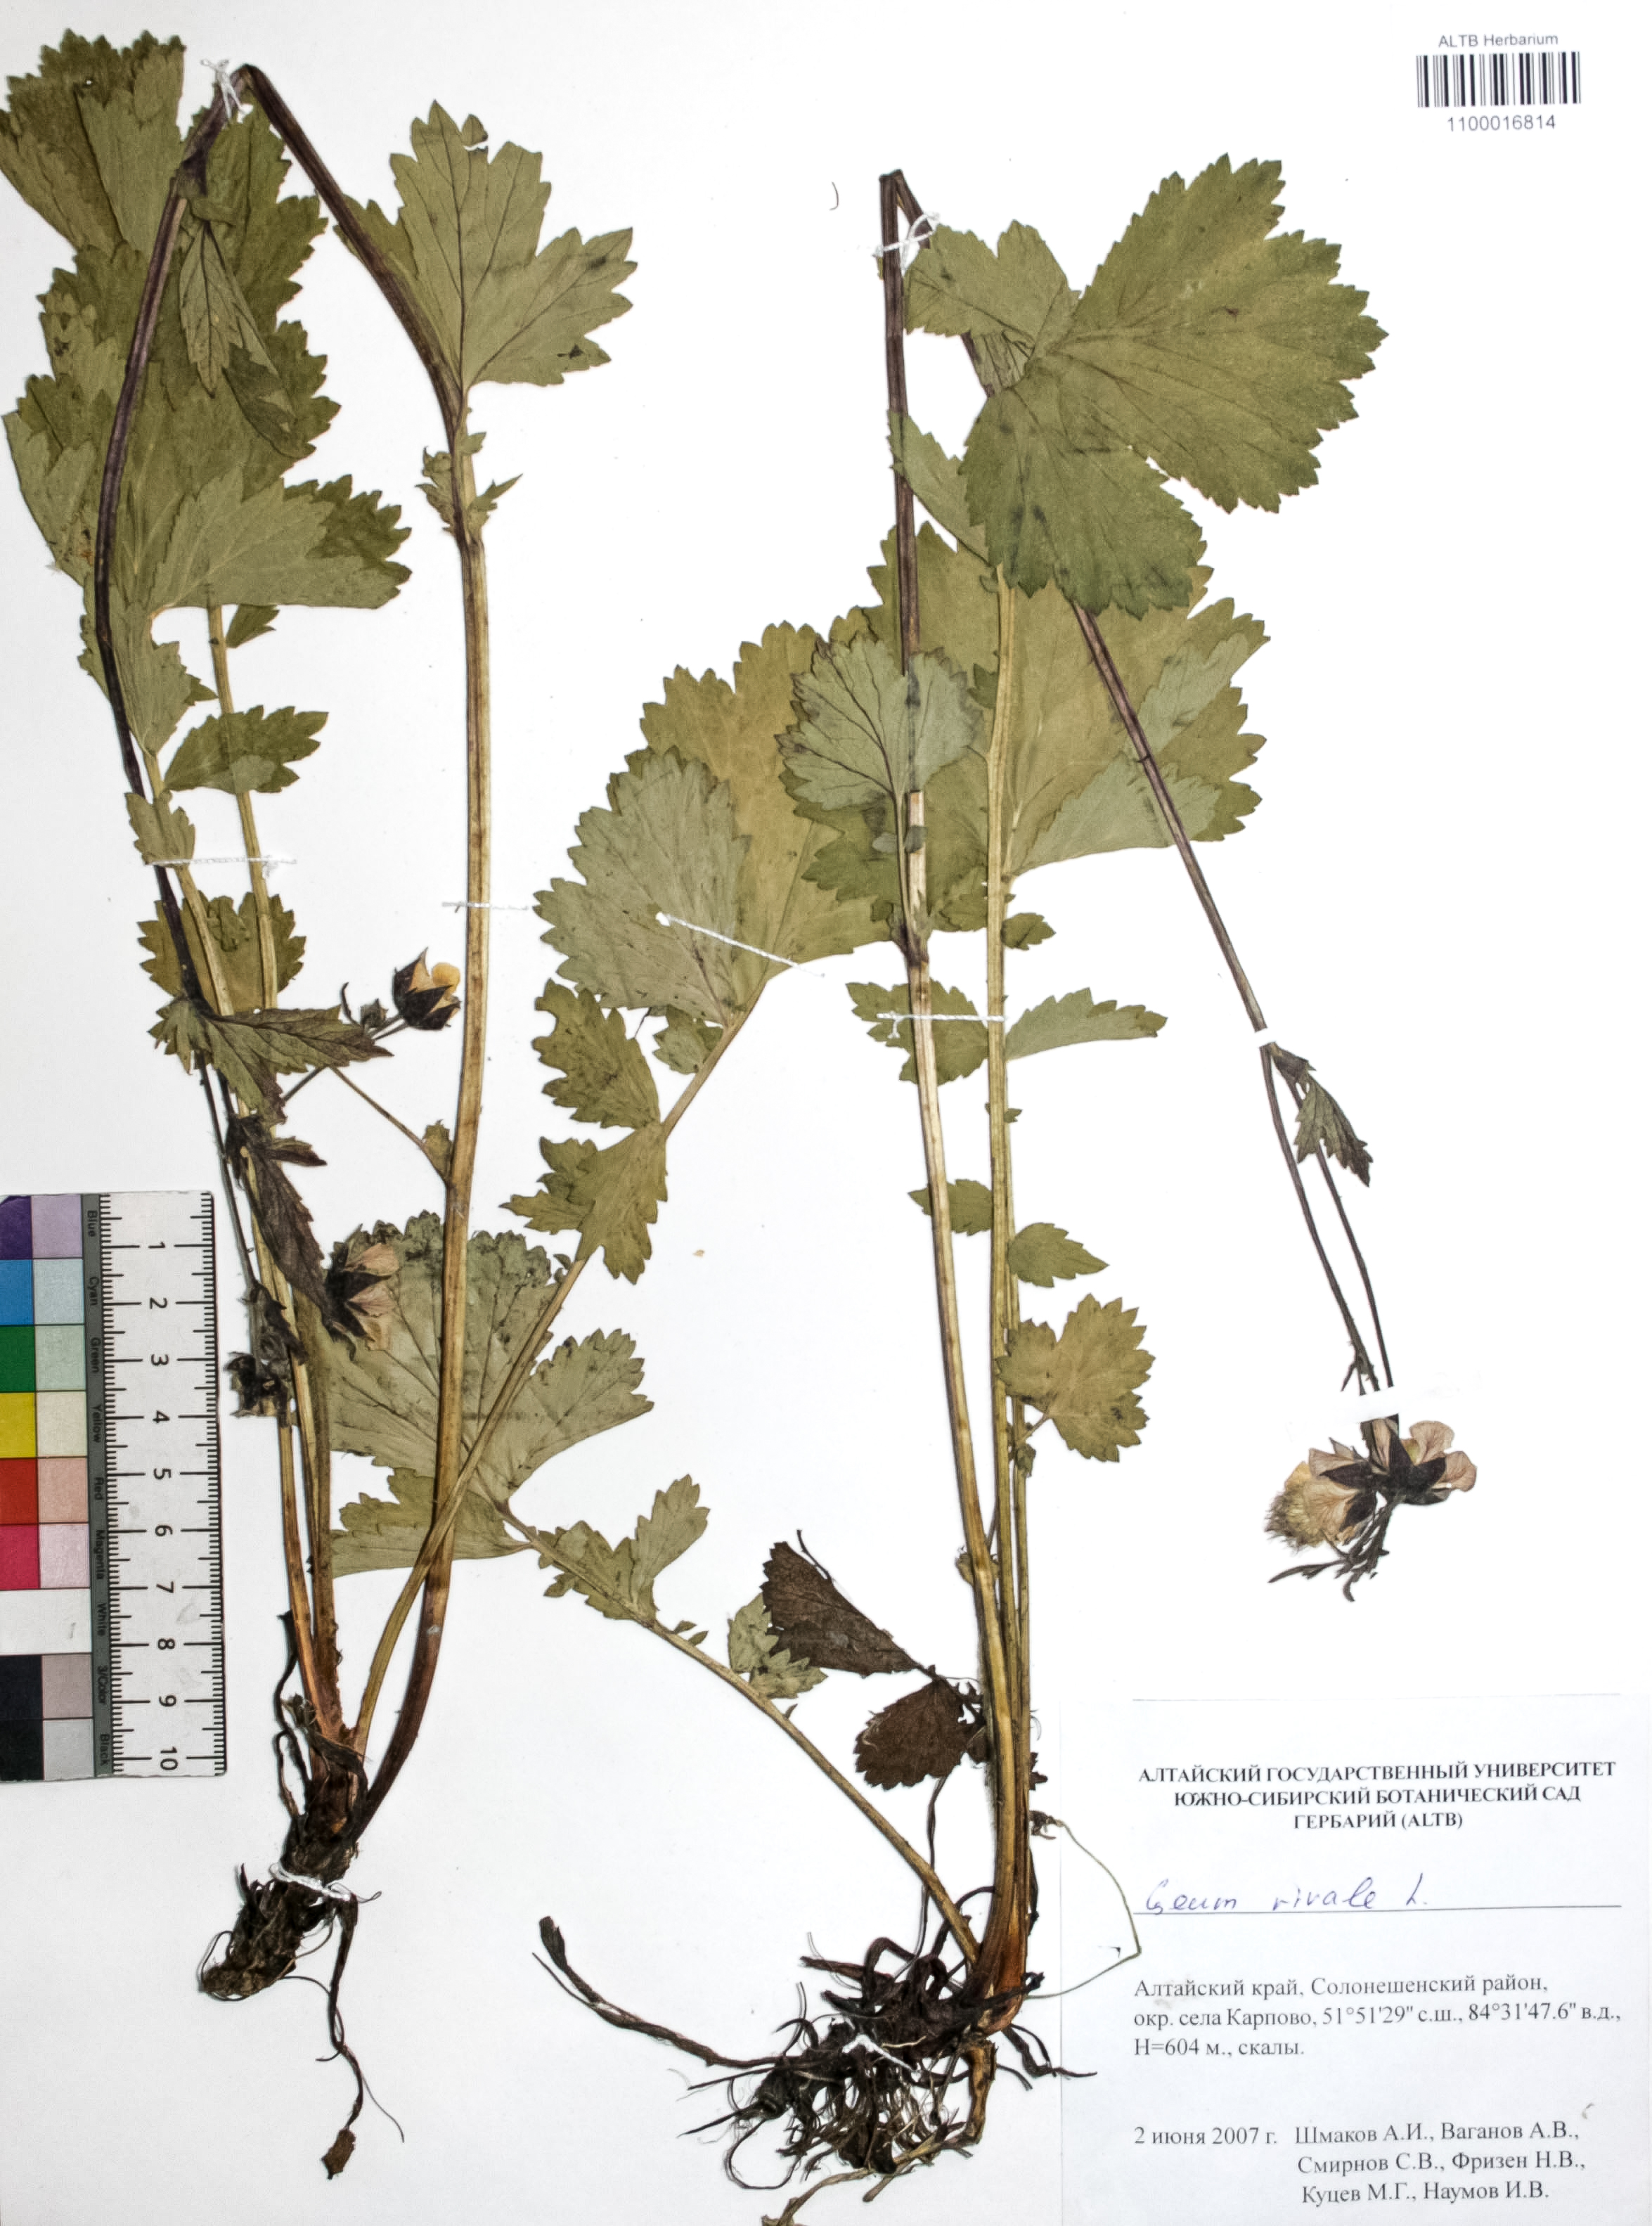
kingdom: Plantae
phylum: Tracheophyta
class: Magnoliopsida
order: Rosales
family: Rosaceae
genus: Geum
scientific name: Geum rivale
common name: Water avens
